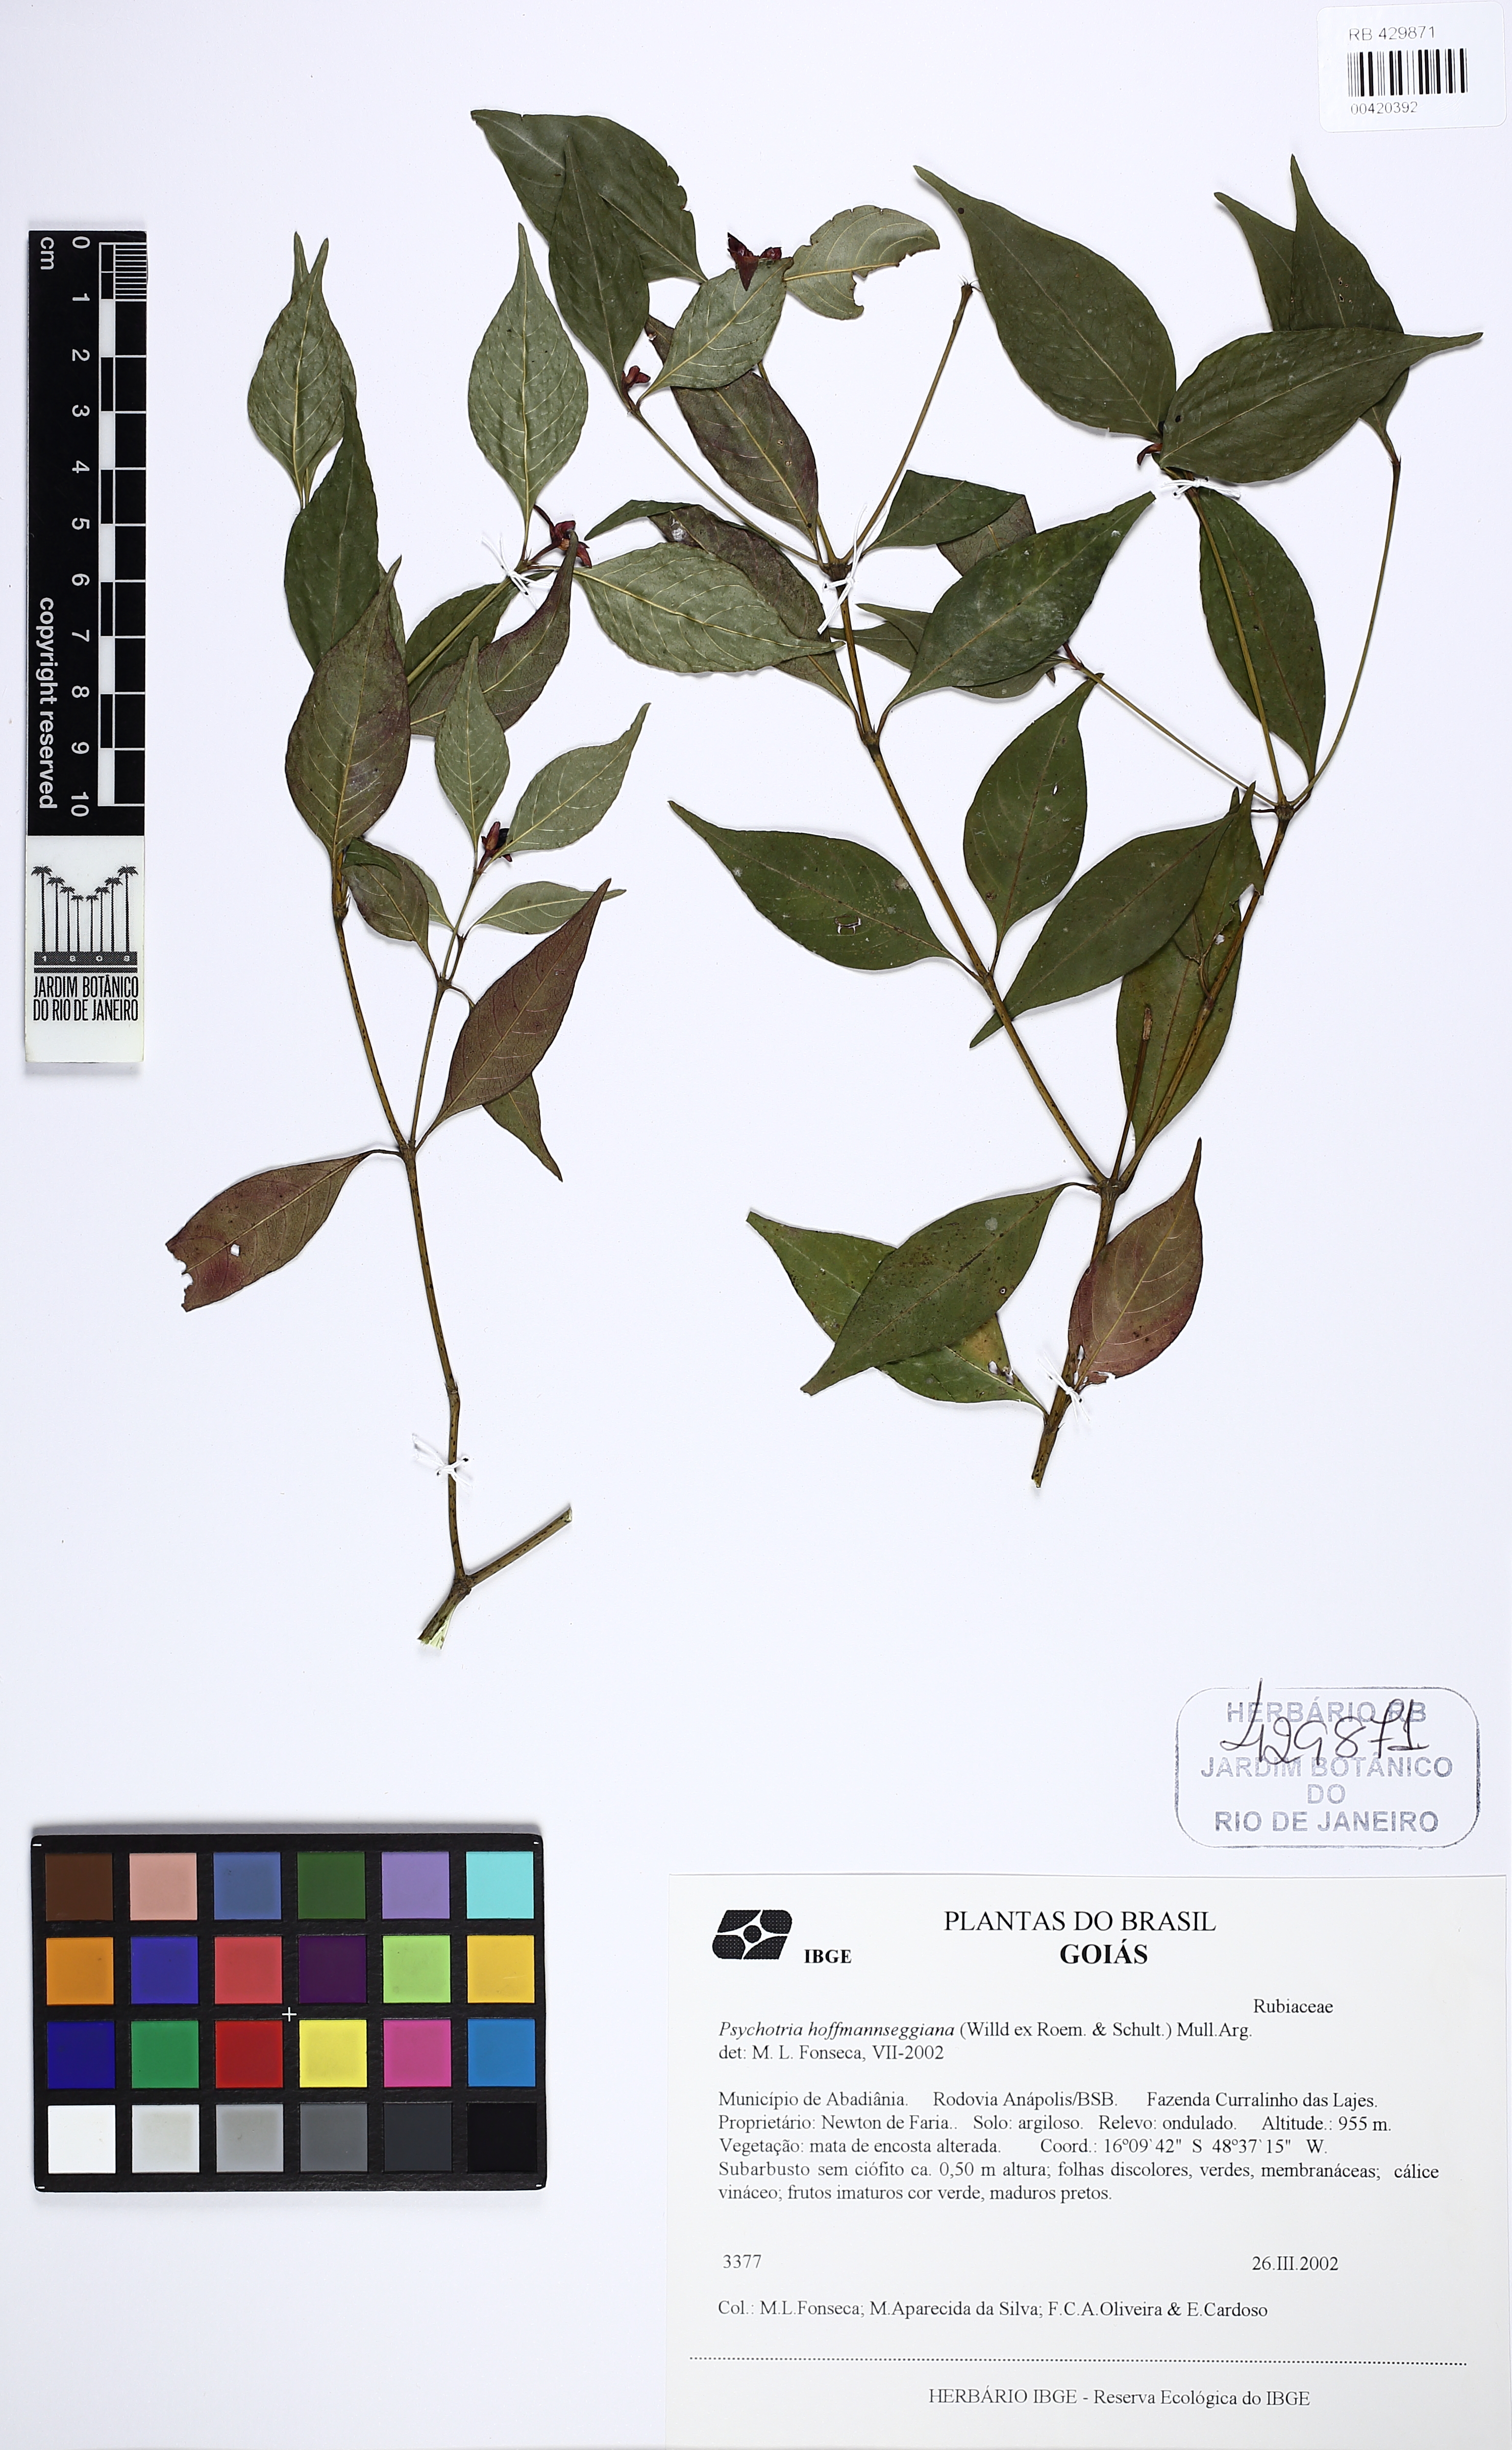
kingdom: Plantae
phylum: Tracheophyta
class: Magnoliopsida
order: Gentianales
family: Rubiaceae
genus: Palicourea
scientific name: Palicourea hoffmannseggiana
